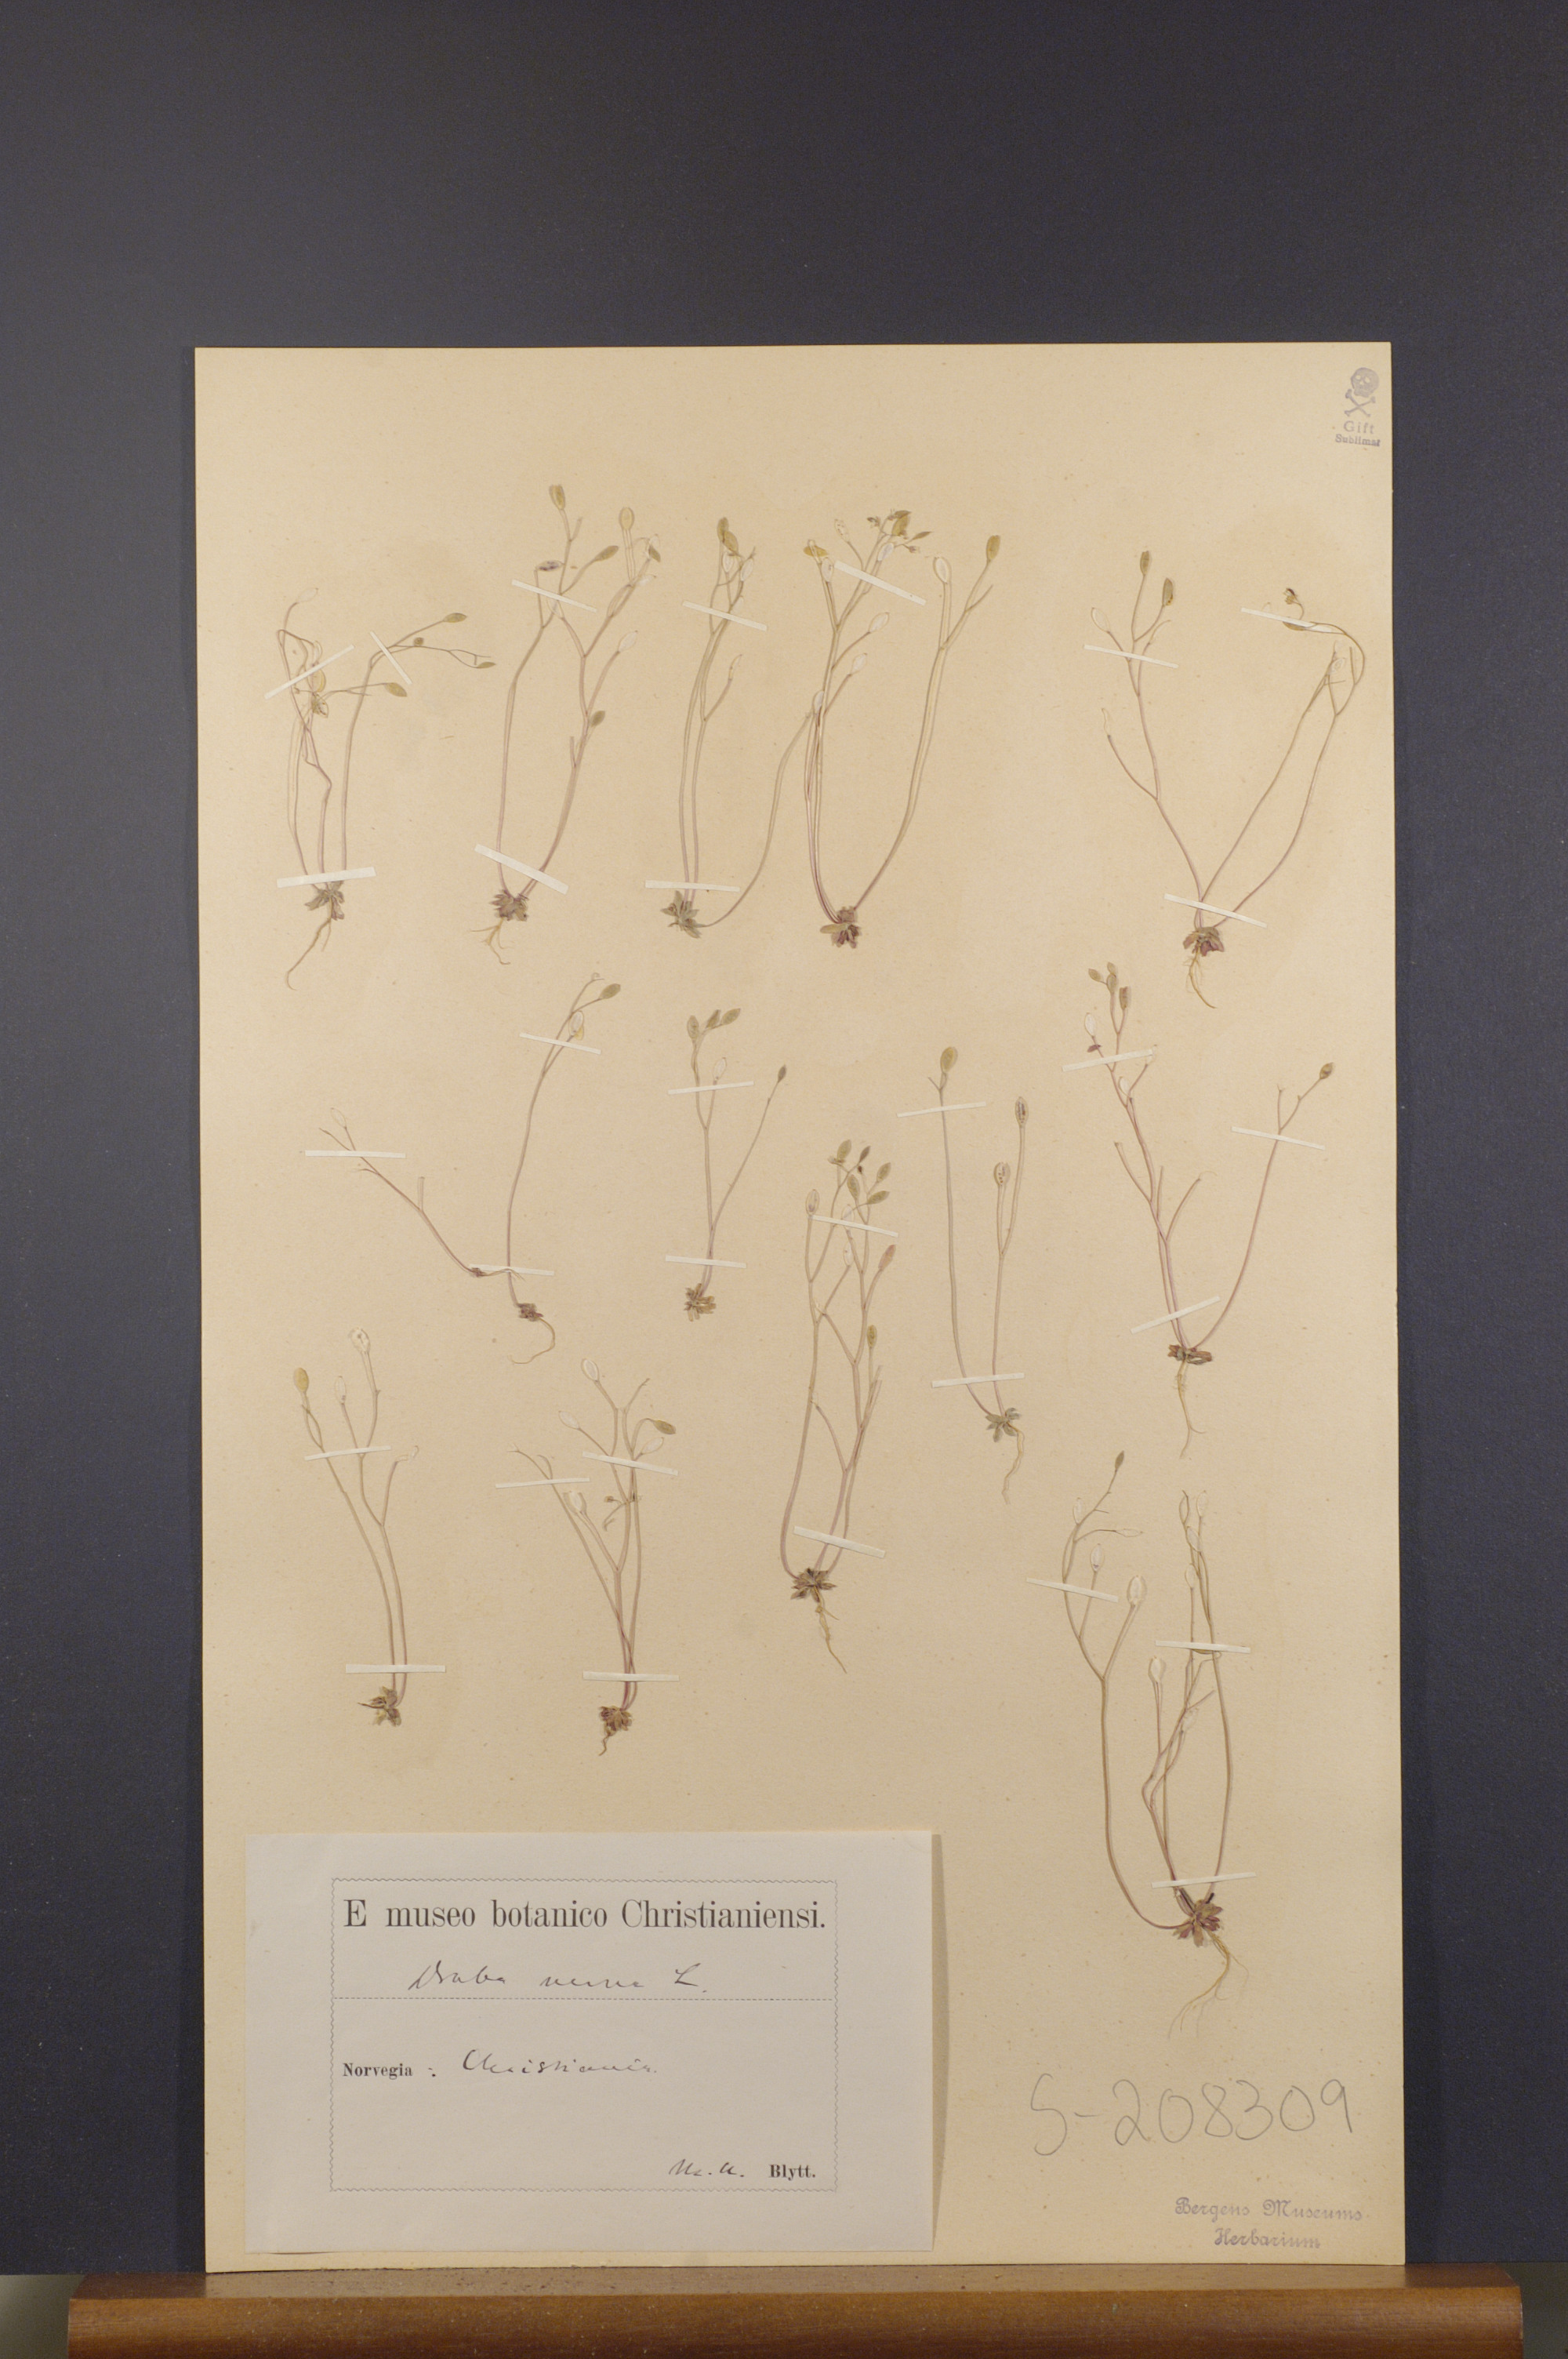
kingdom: Plantae
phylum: Tracheophyta
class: Magnoliopsida
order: Brassicales
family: Brassicaceae
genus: Draba
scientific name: Draba verna
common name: Spring draba
